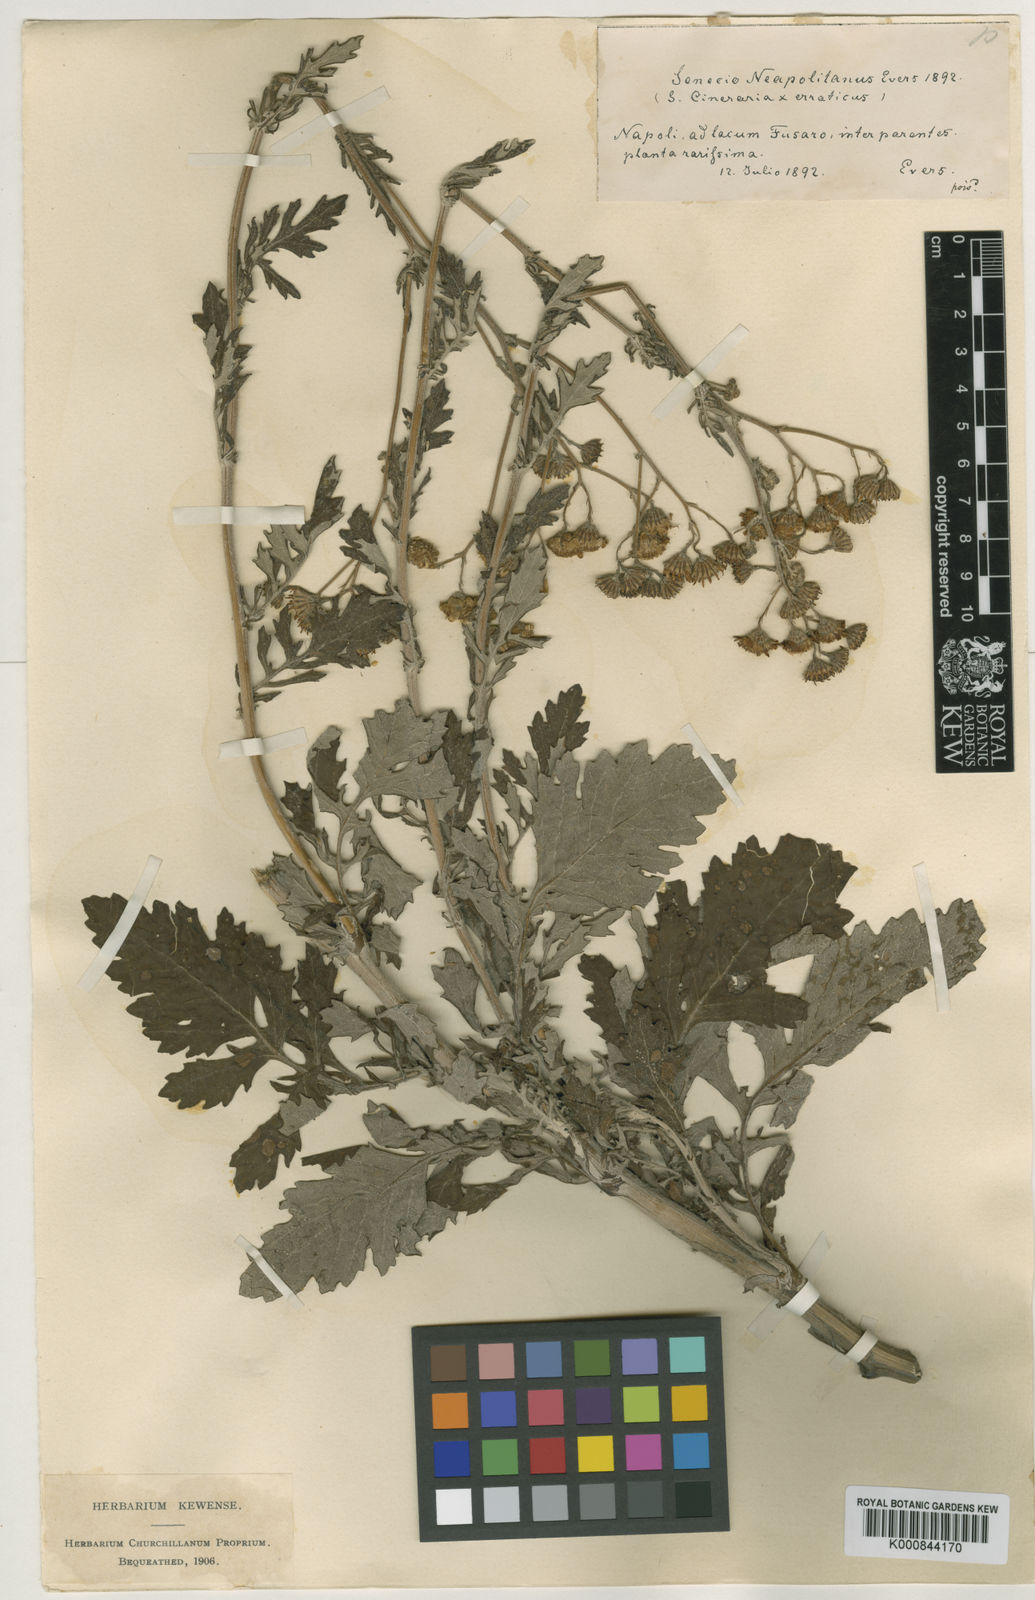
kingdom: Plantae
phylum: Tracheophyta
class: Magnoliopsida
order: Asterales
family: Asteraceae
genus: Jacobaea
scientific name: Jacobaea maritima
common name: Silver ragwort
